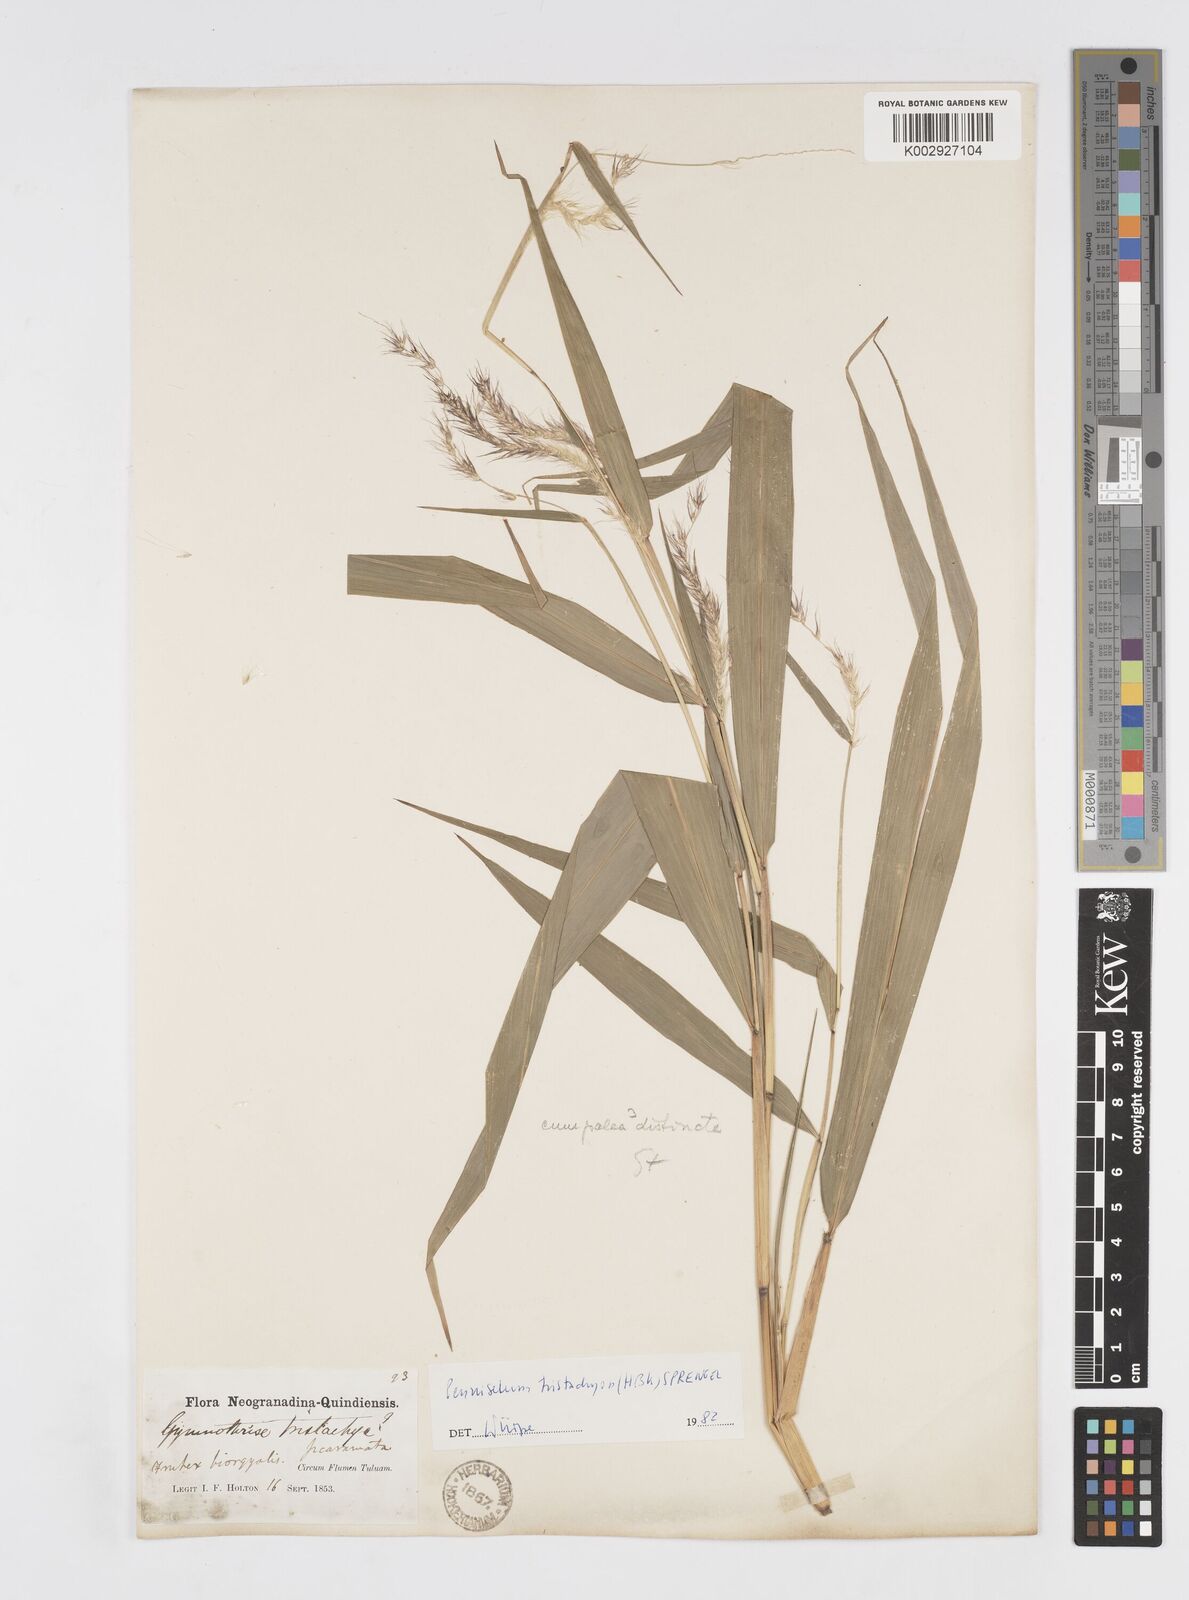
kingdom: Plantae
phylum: Tracheophyta
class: Liliopsida
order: Poales
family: Poaceae
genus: Cenchrus
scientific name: Cenchrus tristachyus
